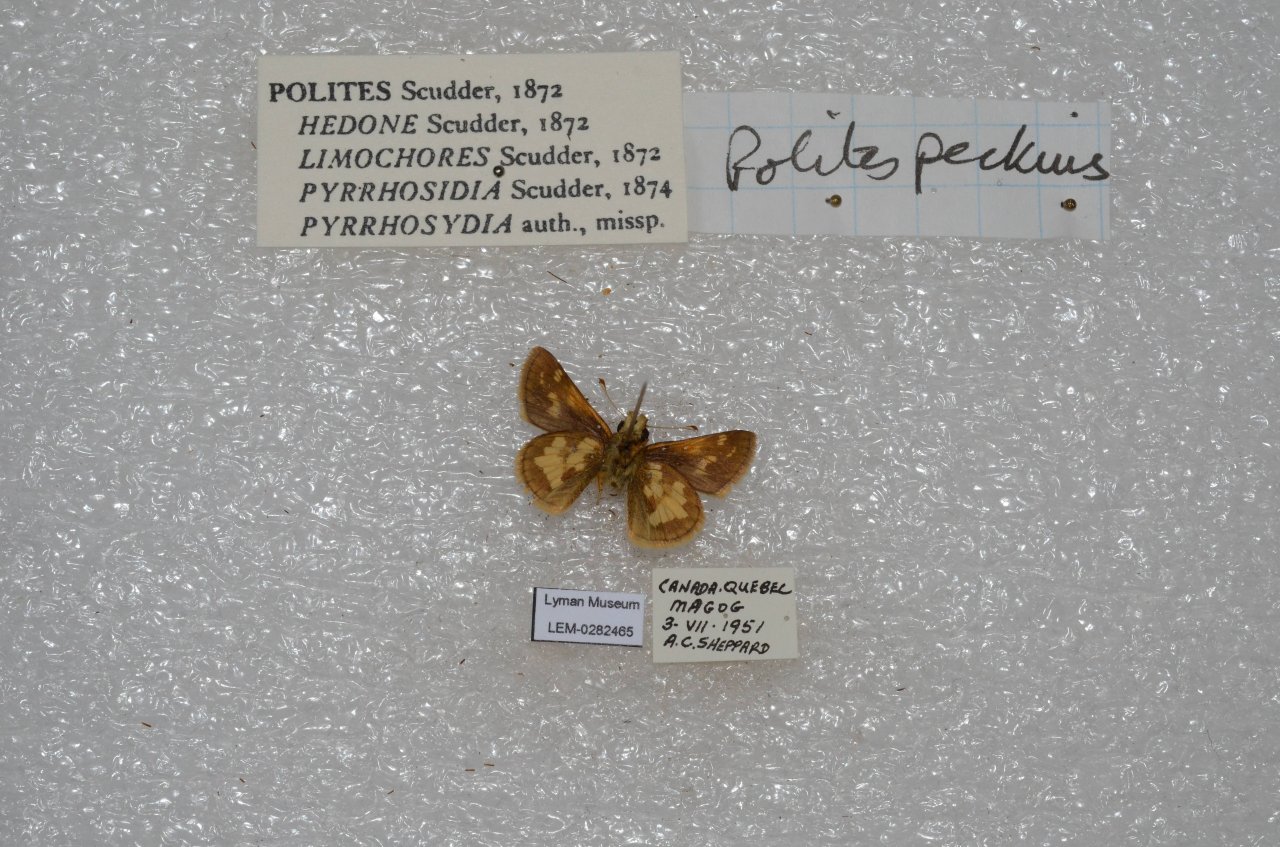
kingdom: Animalia
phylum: Arthropoda
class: Insecta
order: Lepidoptera
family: Hesperiidae
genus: Polites
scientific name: Polites coras
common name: Peck's Skipper
